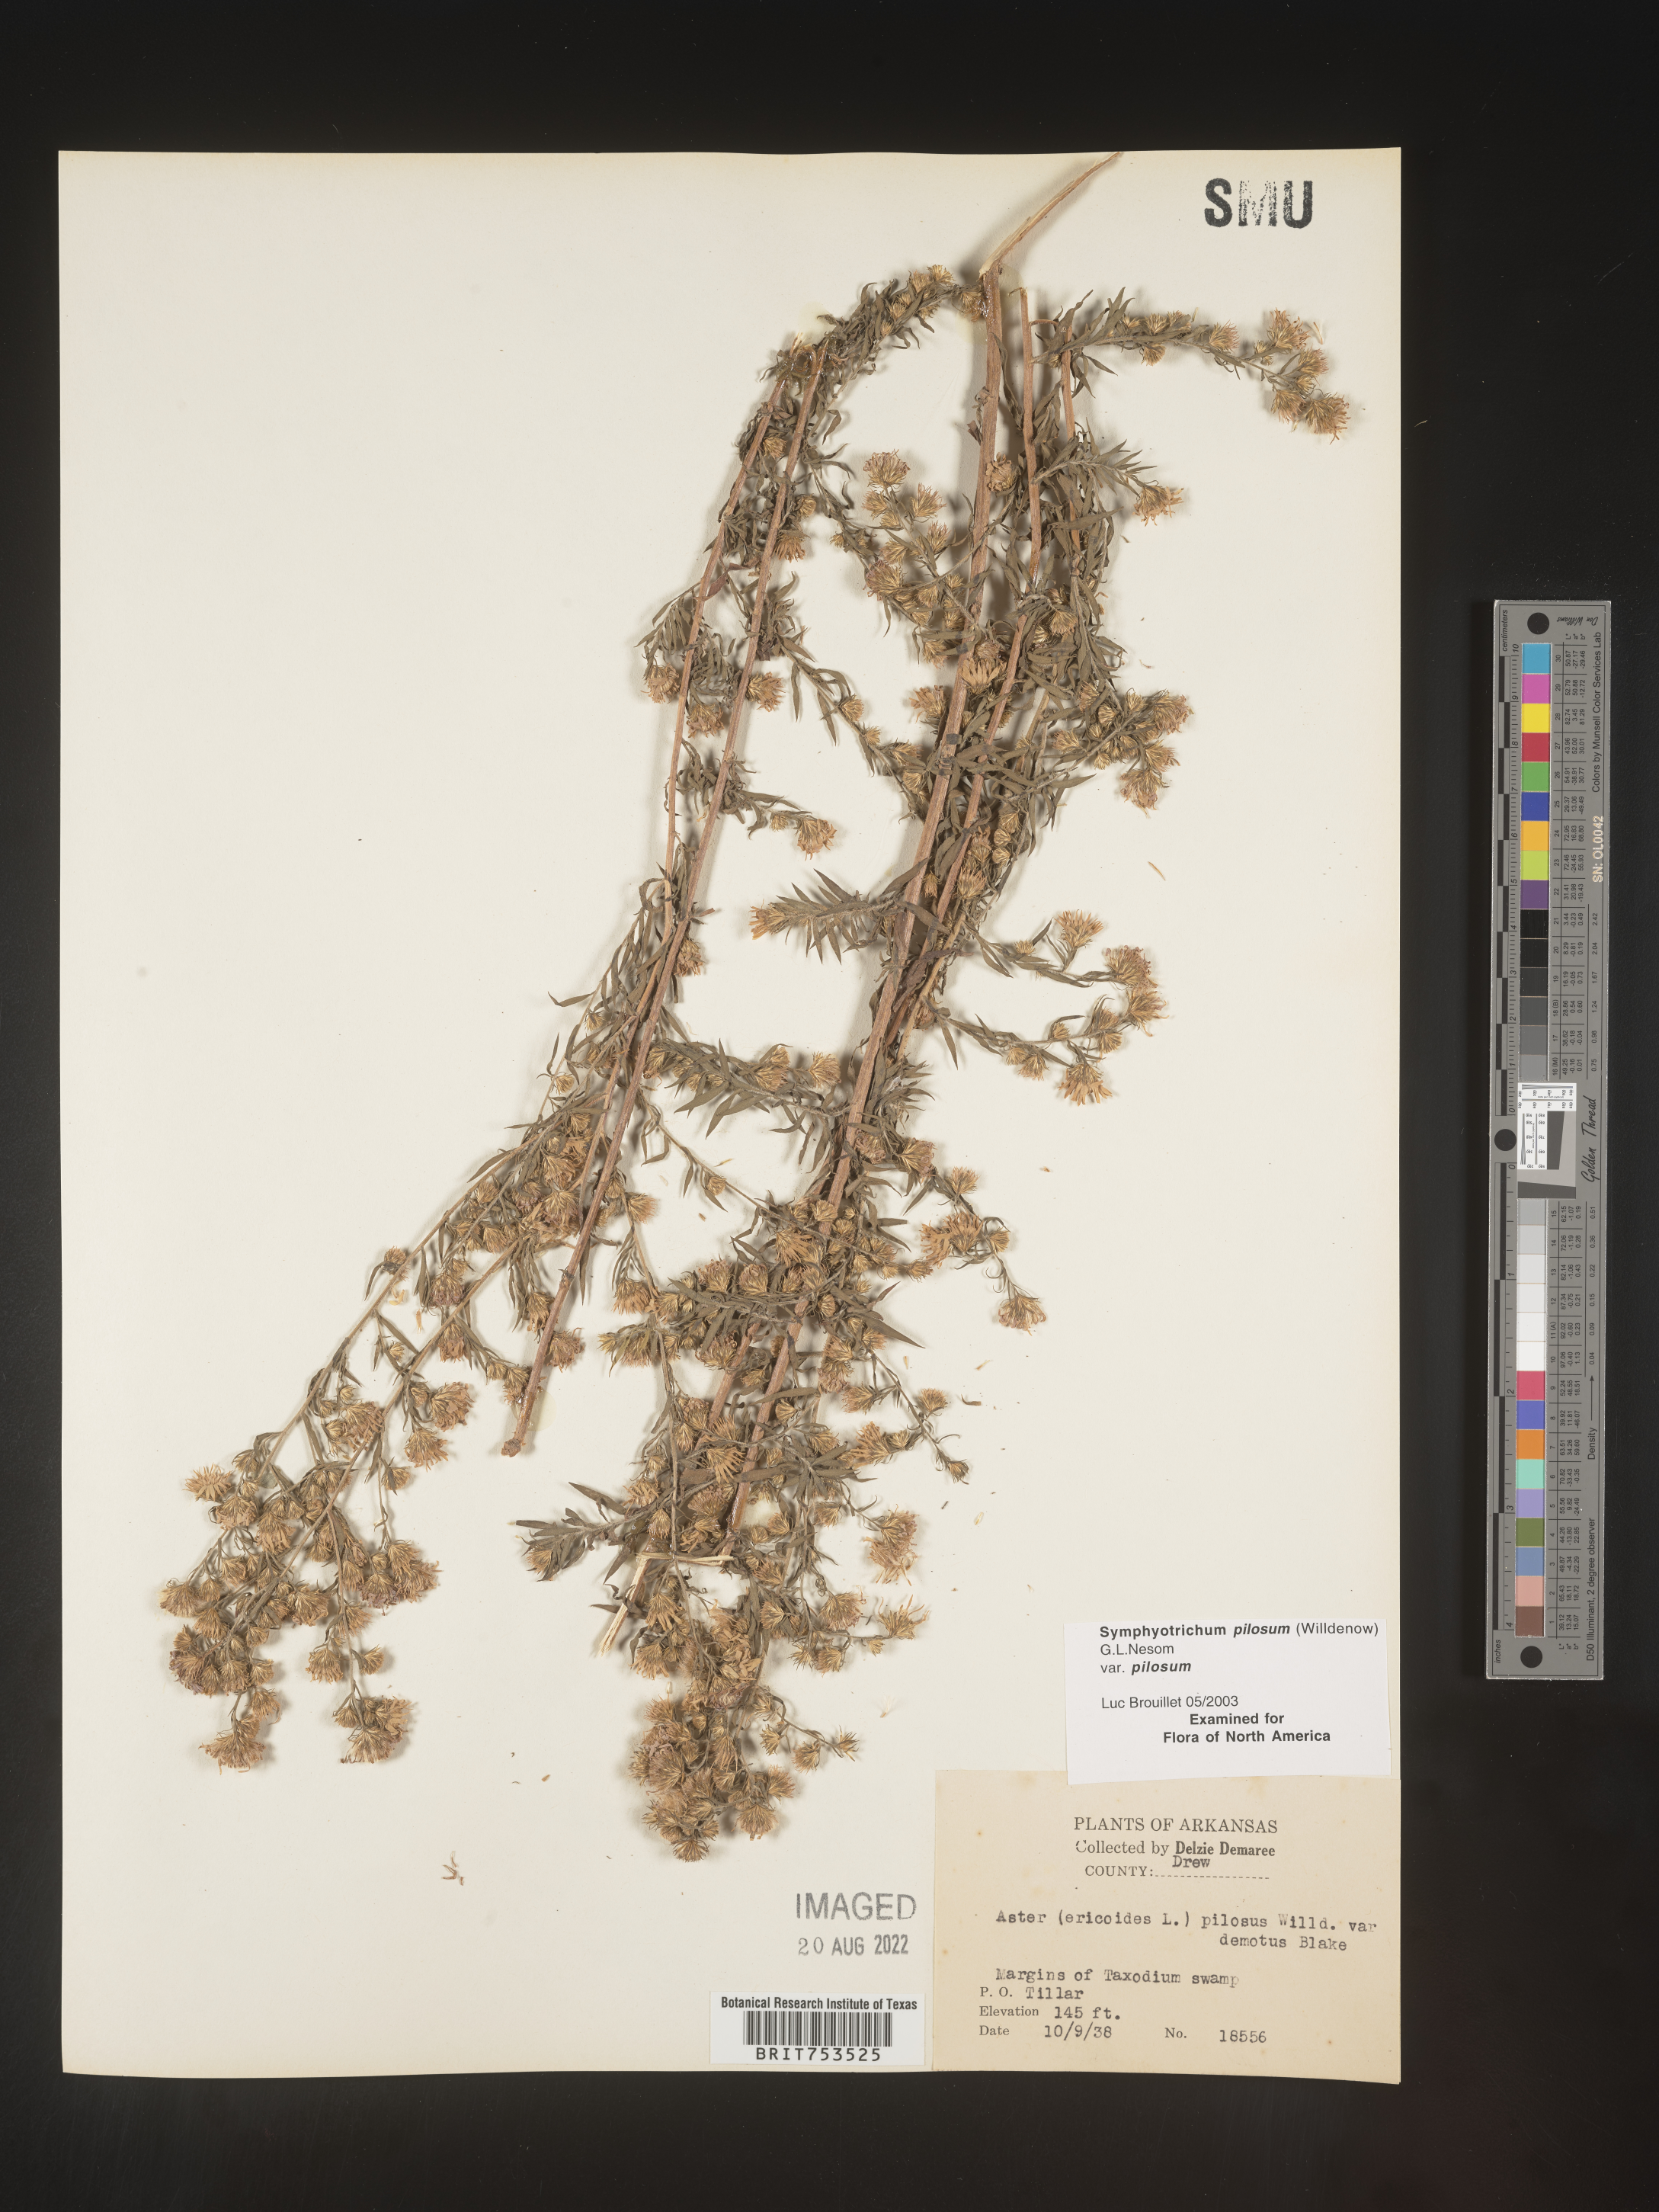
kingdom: Plantae
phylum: Tracheophyta
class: Magnoliopsida
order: Asterales
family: Asteraceae
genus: Symphyotrichum
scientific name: Symphyotrichum pilosum
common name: Awl aster
